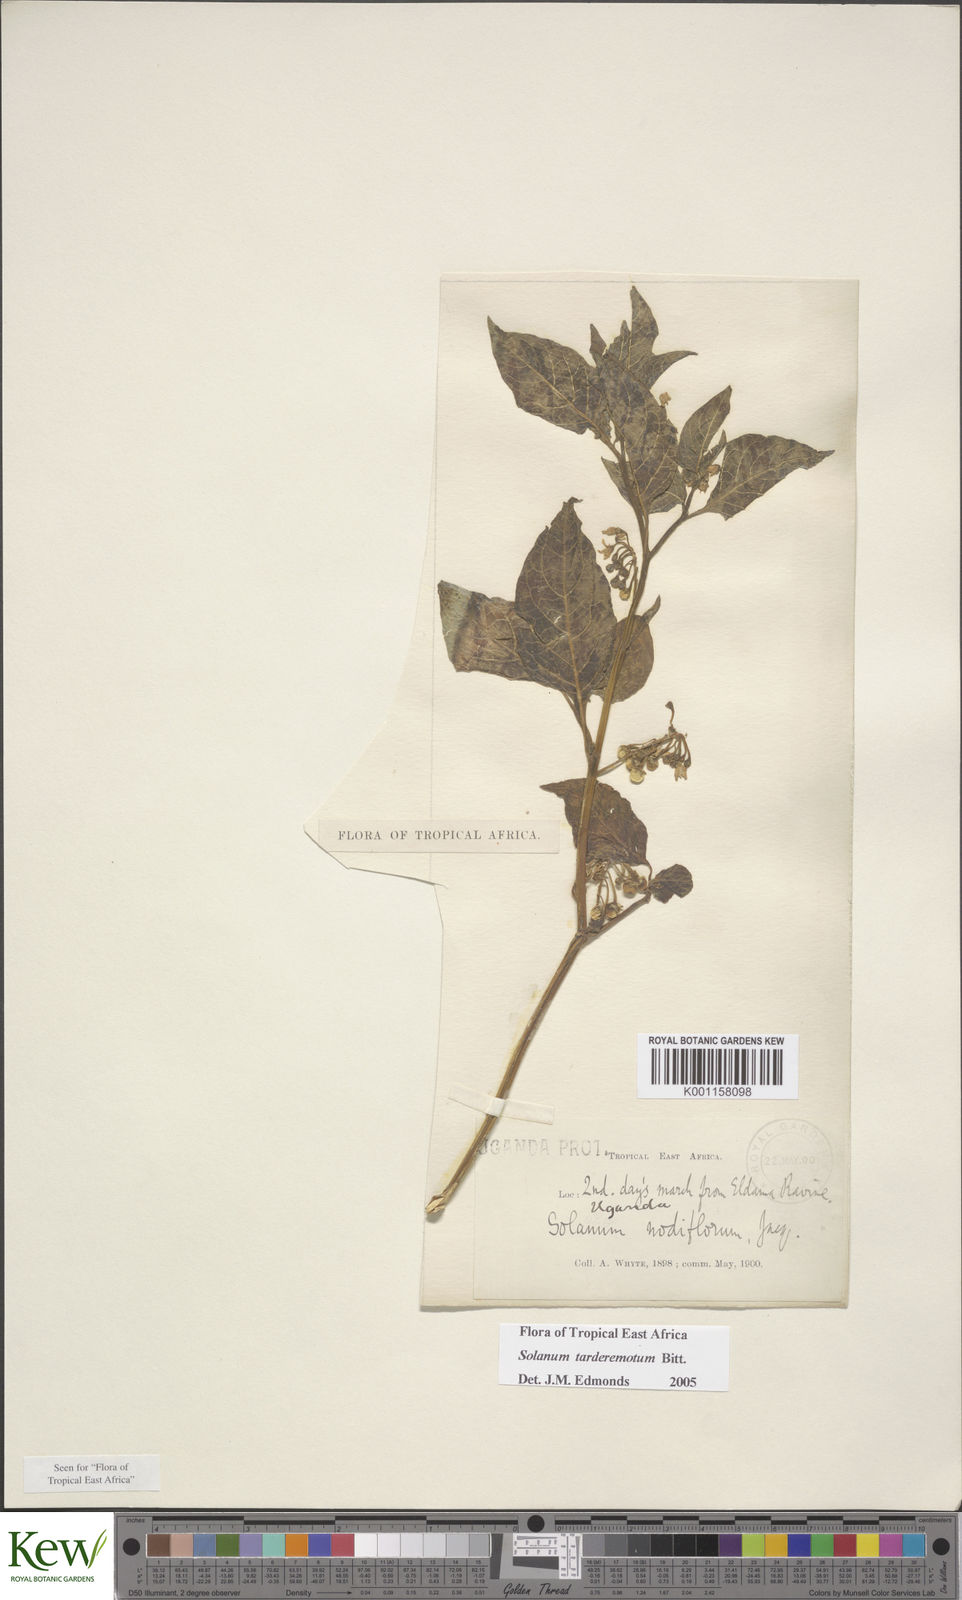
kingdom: Plantae
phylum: Tracheophyta
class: Magnoliopsida
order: Solanales
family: Solanaceae
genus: Solanum
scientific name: Solanum tarderemotum
